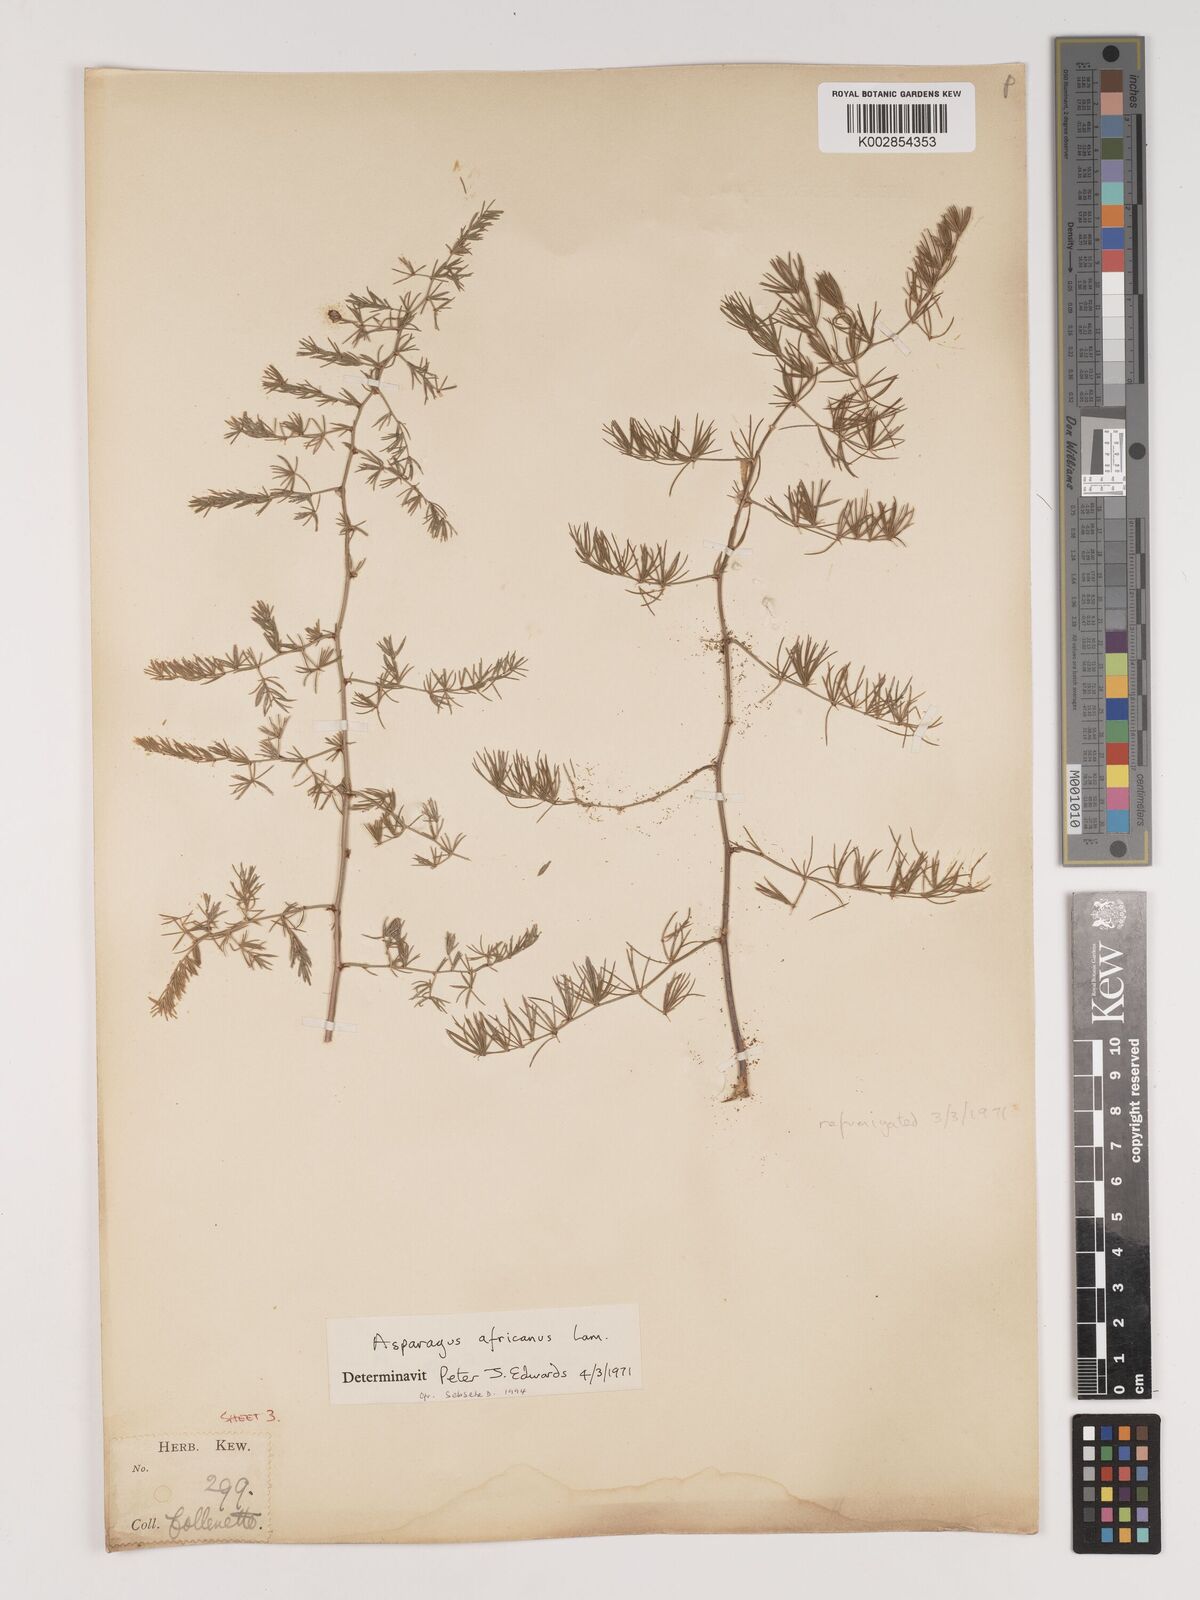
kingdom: Plantae
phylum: Tracheophyta
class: Liliopsida
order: Asparagales
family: Asparagaceae
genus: Asparagus
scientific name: Asparagus africanus
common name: Asparagus-fern
